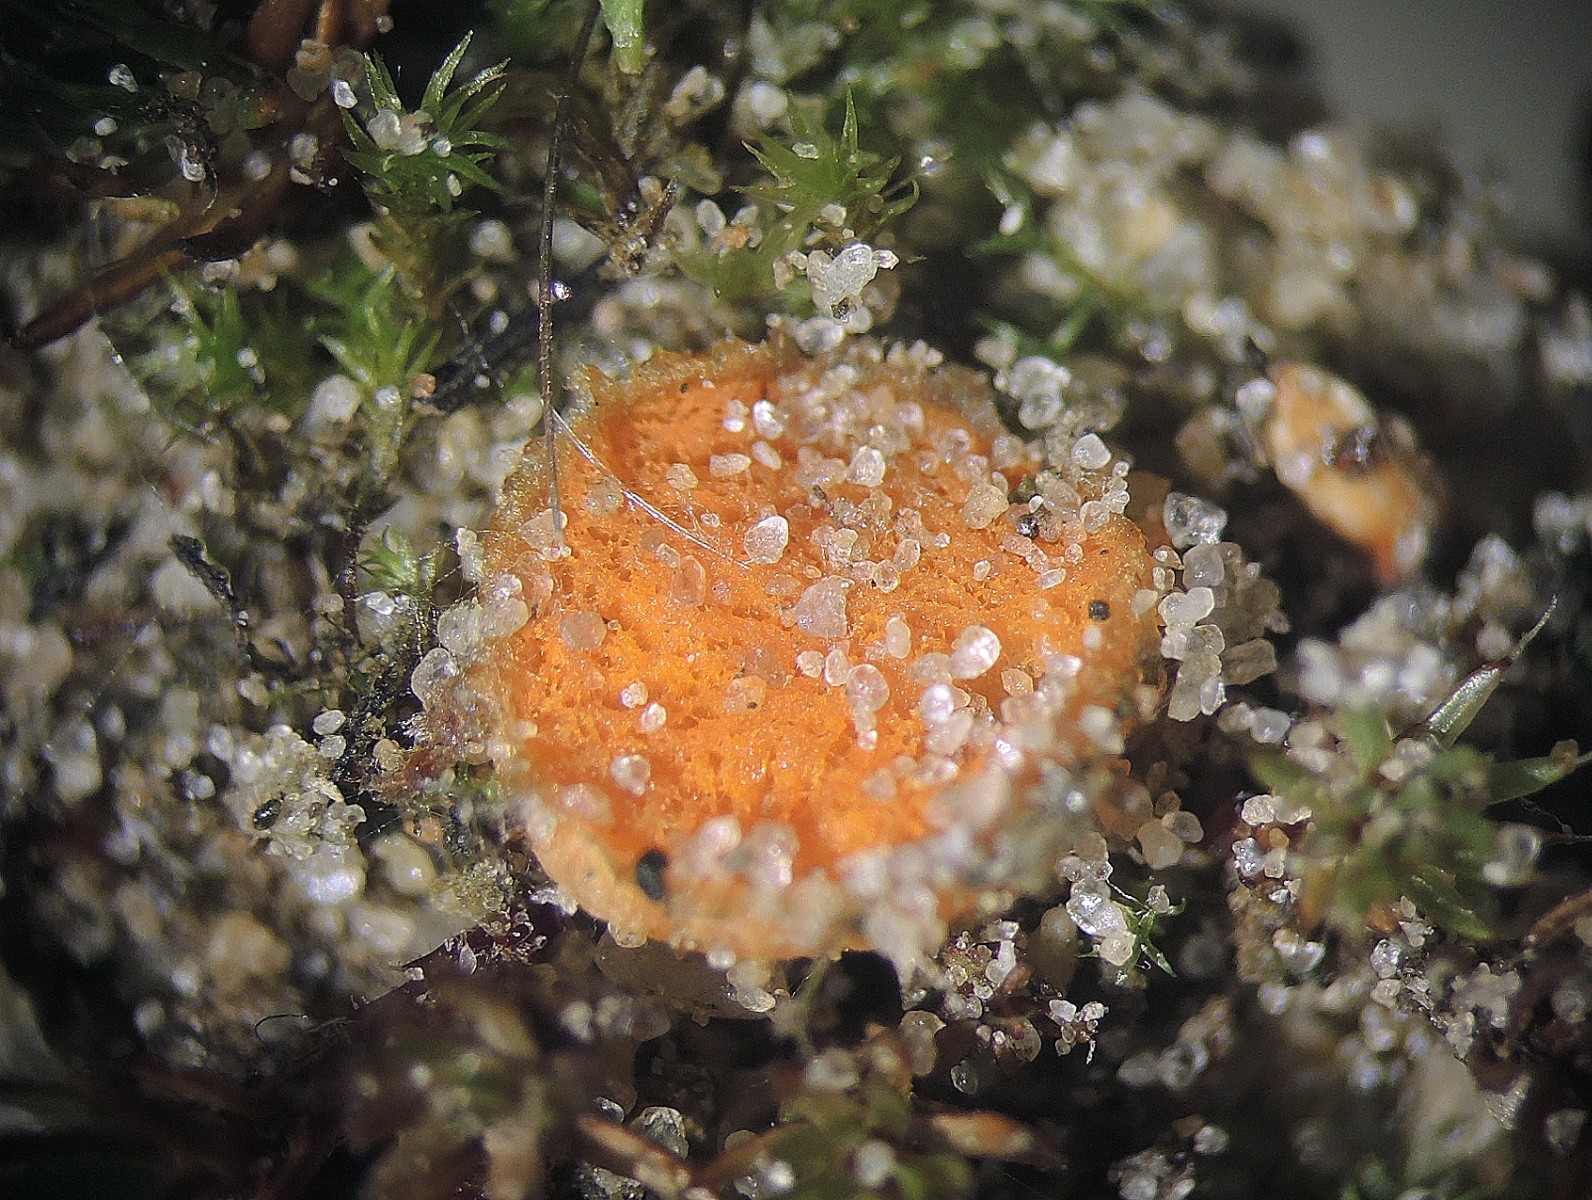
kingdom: Fungi
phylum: Ascomycota
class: Pezizomycetes
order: Pezizales
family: Pyronemataceae
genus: Octospora
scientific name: Octospora humosa
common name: Hotlips
